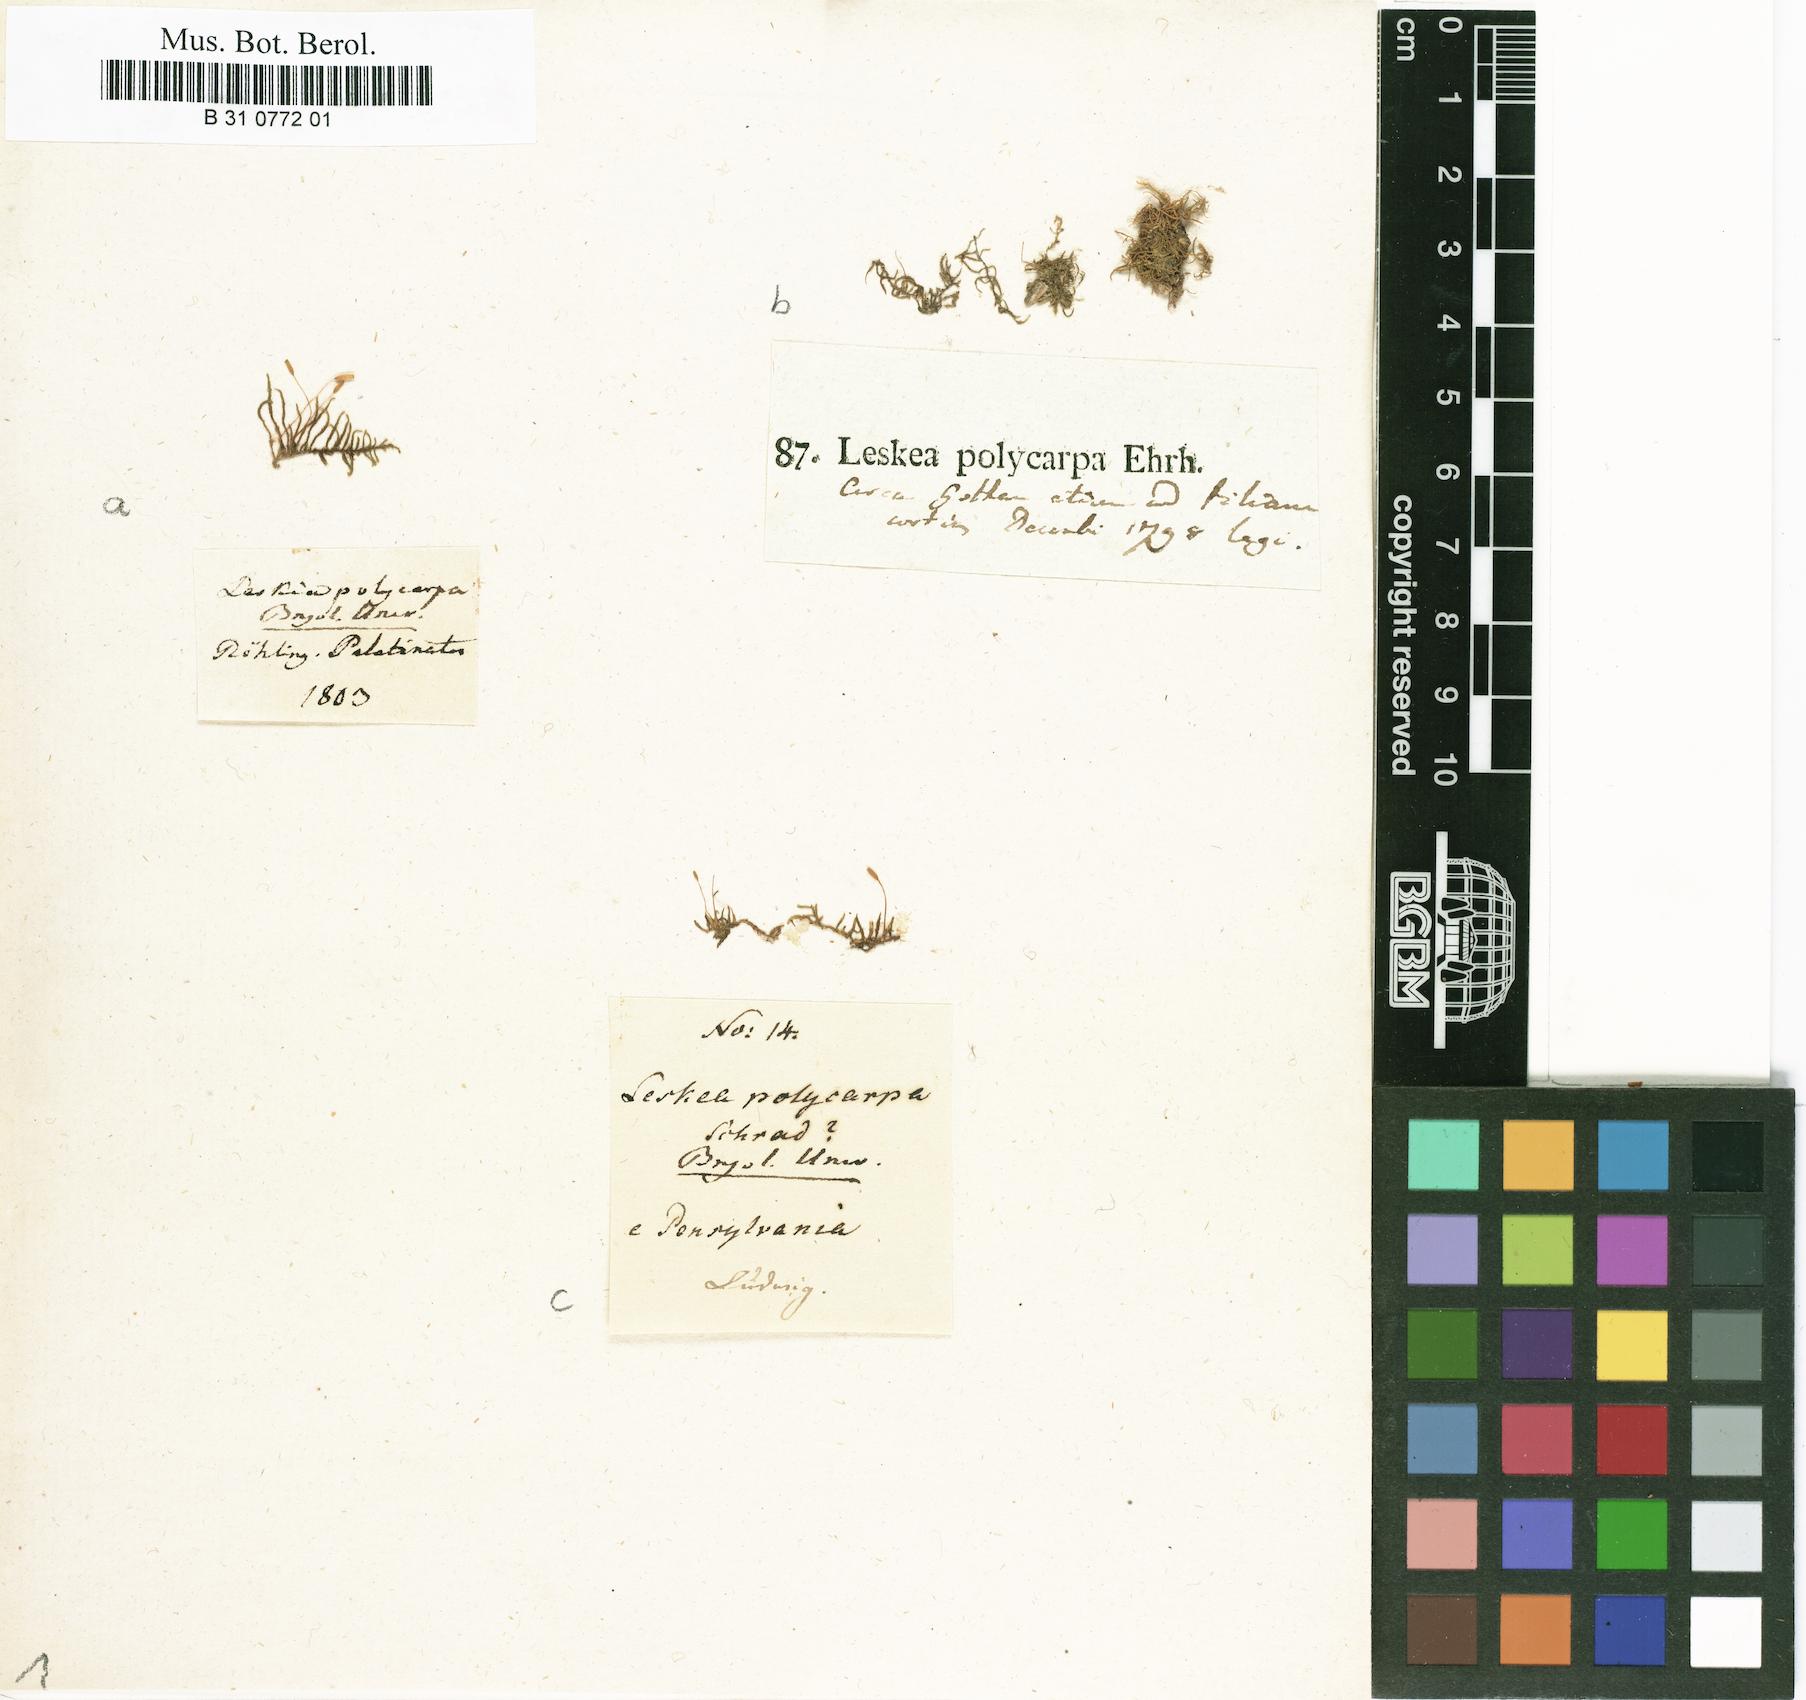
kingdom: Plantae
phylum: Bryophyta
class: Bryopsida
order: Hypnales
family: Leskeaceae
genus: Leskea
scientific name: Leskea polycarpa
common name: Many-fruited leske's moss
